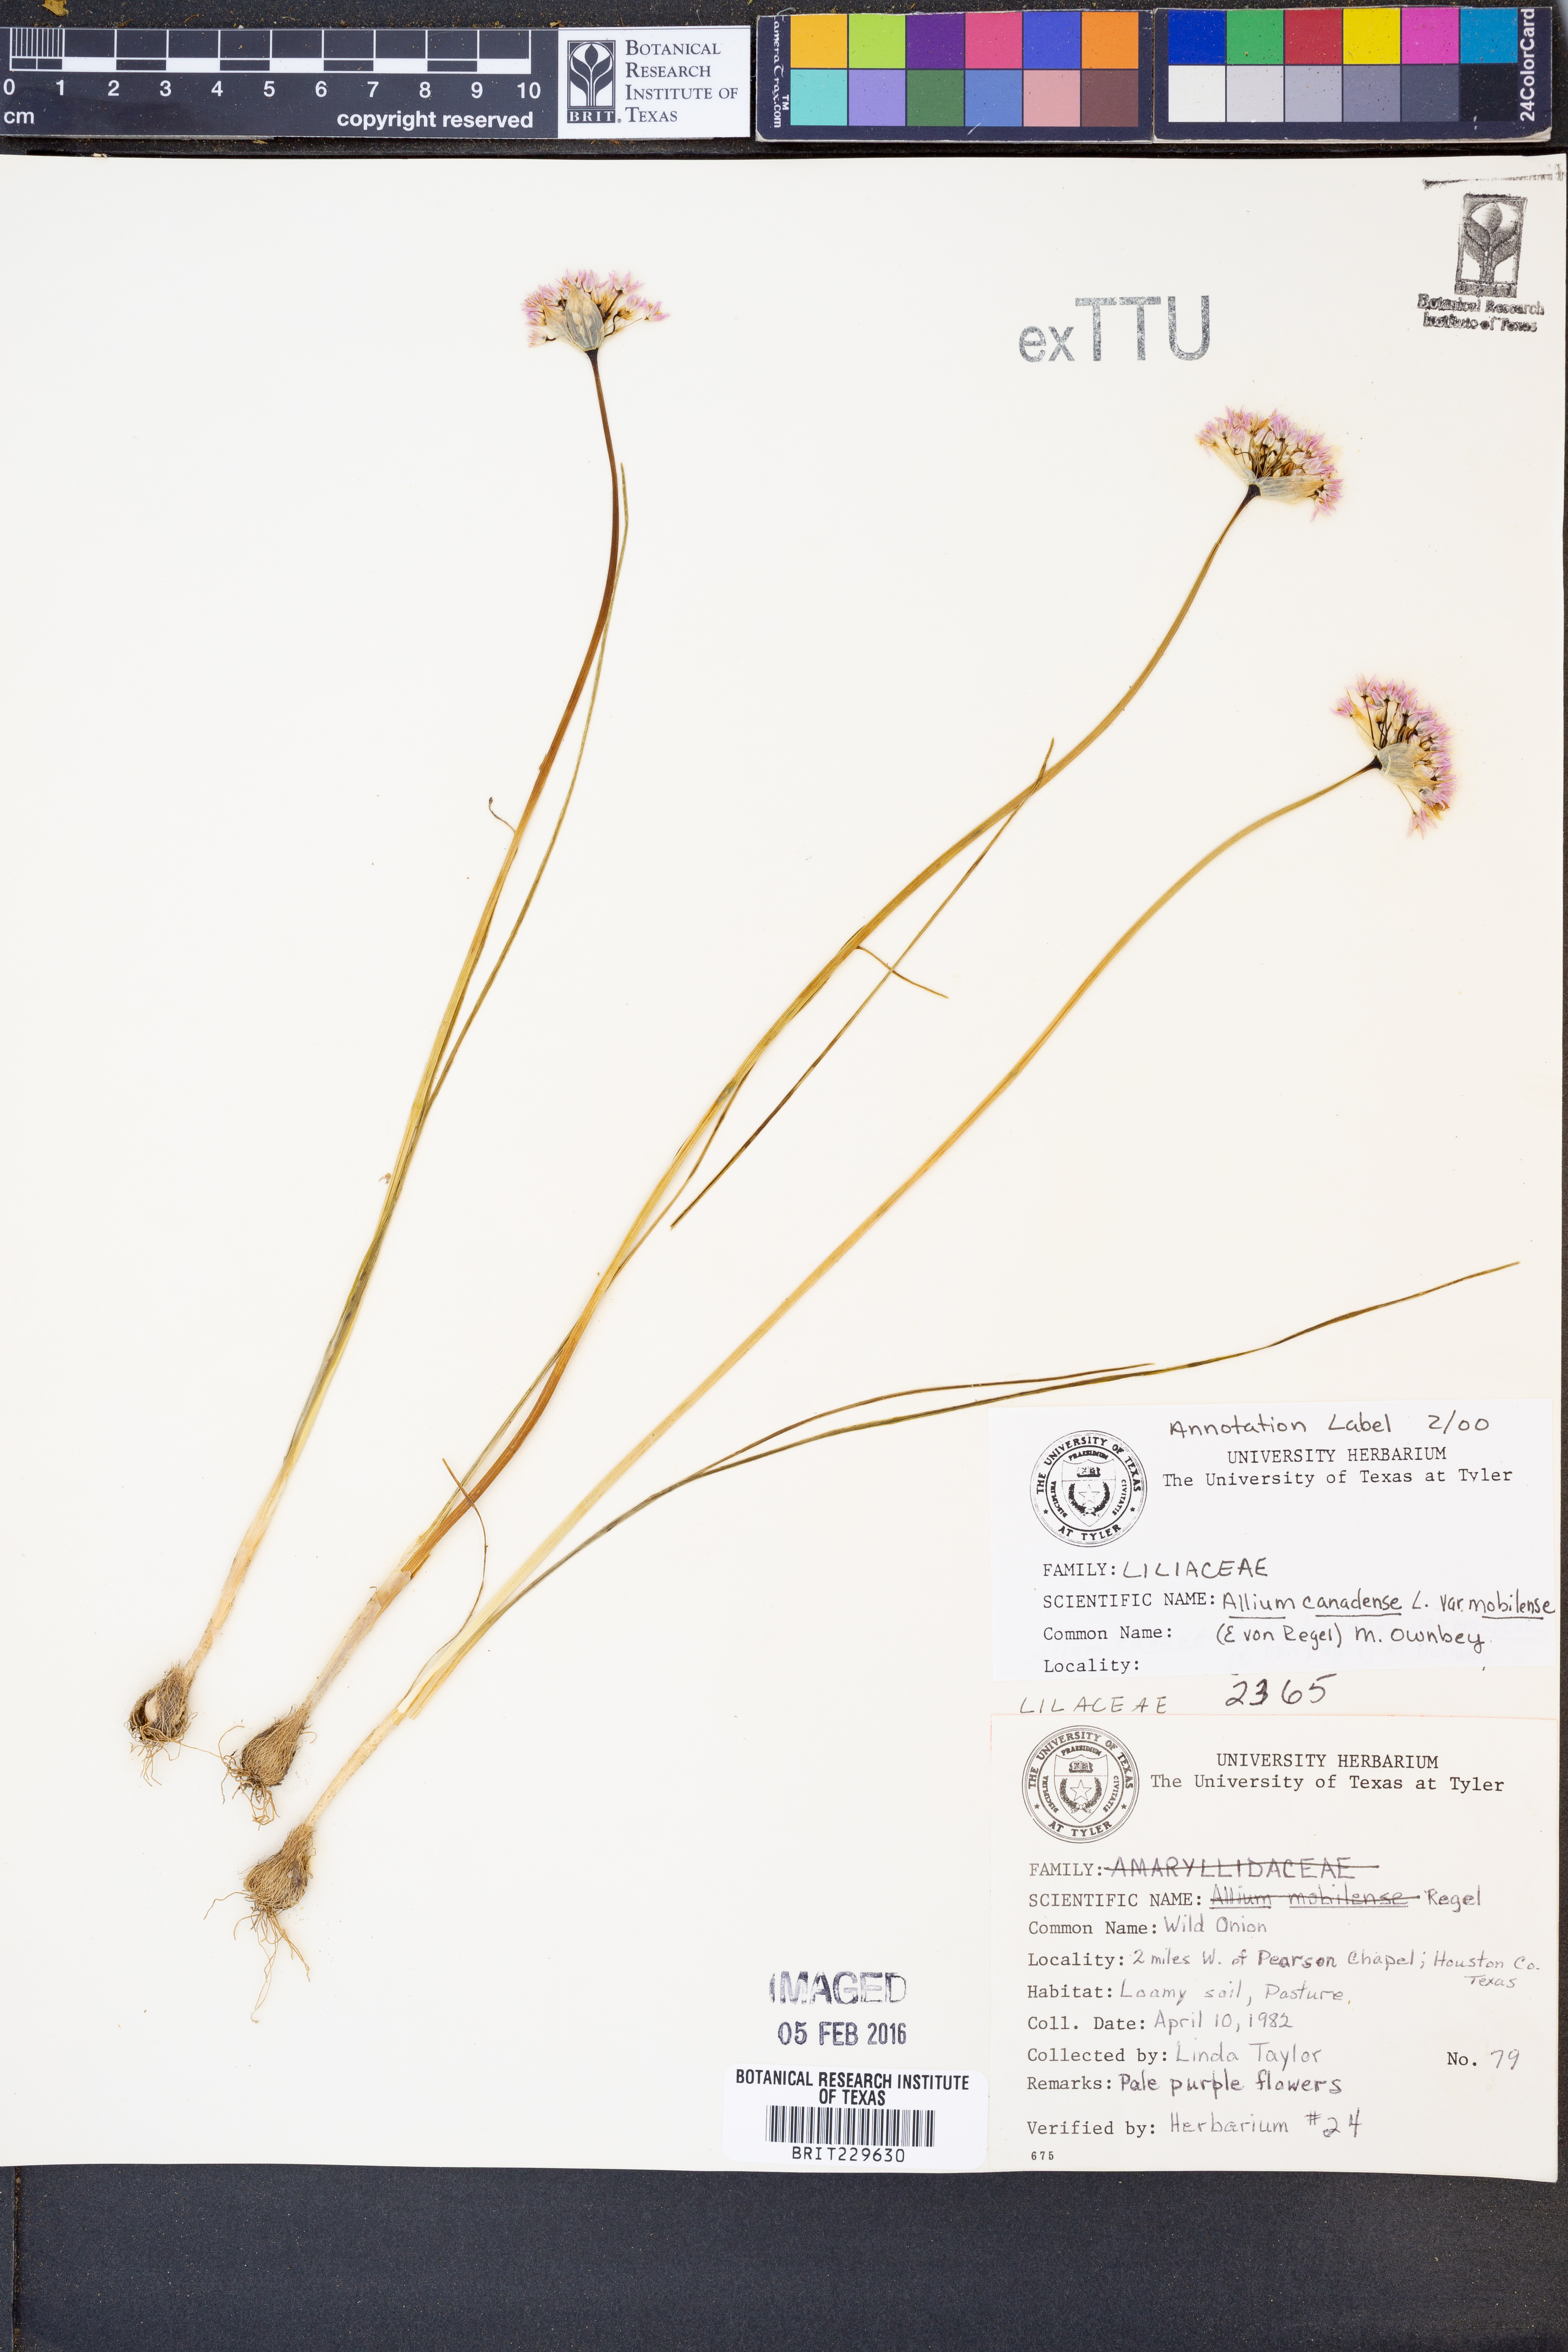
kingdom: Plantae
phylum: Tracheophyta
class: Liliopsida
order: Asparagales
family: Amaryllidaceae
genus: Allium
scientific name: Allium canadense
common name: Meadow garlic
